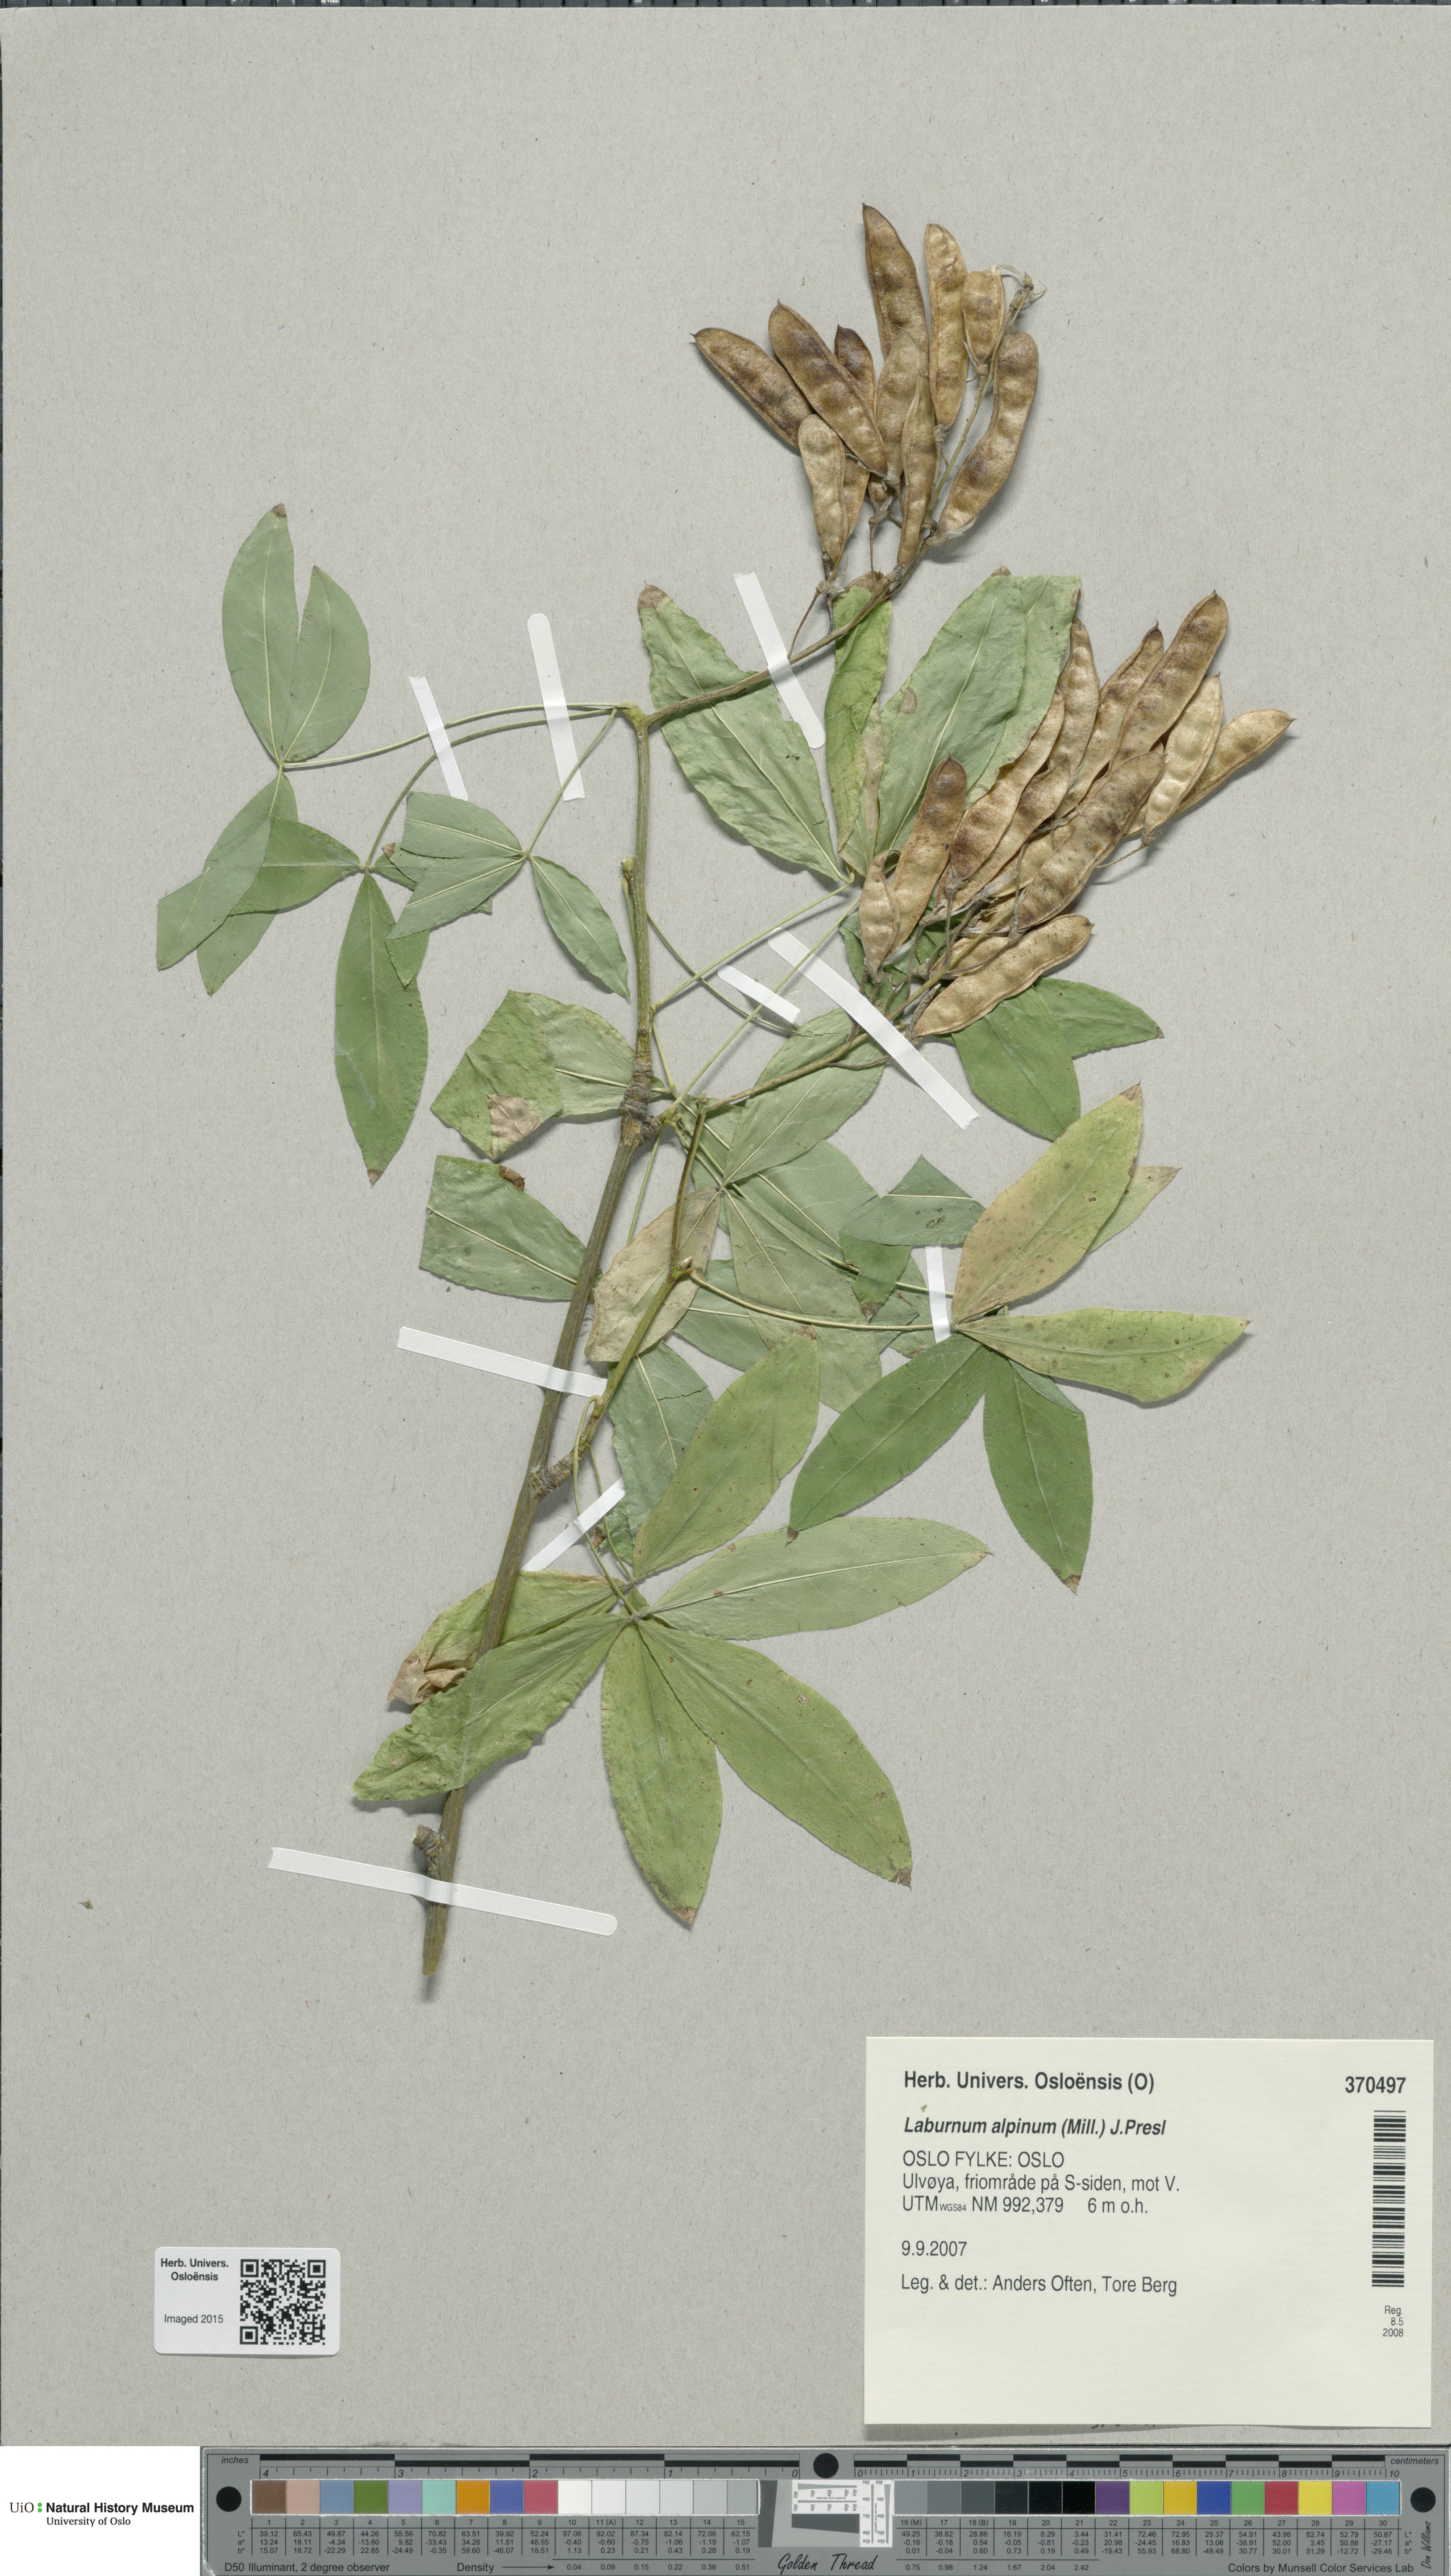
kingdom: Plantae
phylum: Tracheophyta
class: Magnoliopsida
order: Fabales
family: Fabaceae
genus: Laburnum
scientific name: Laburnum alpinum
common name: Scottish laburnum
